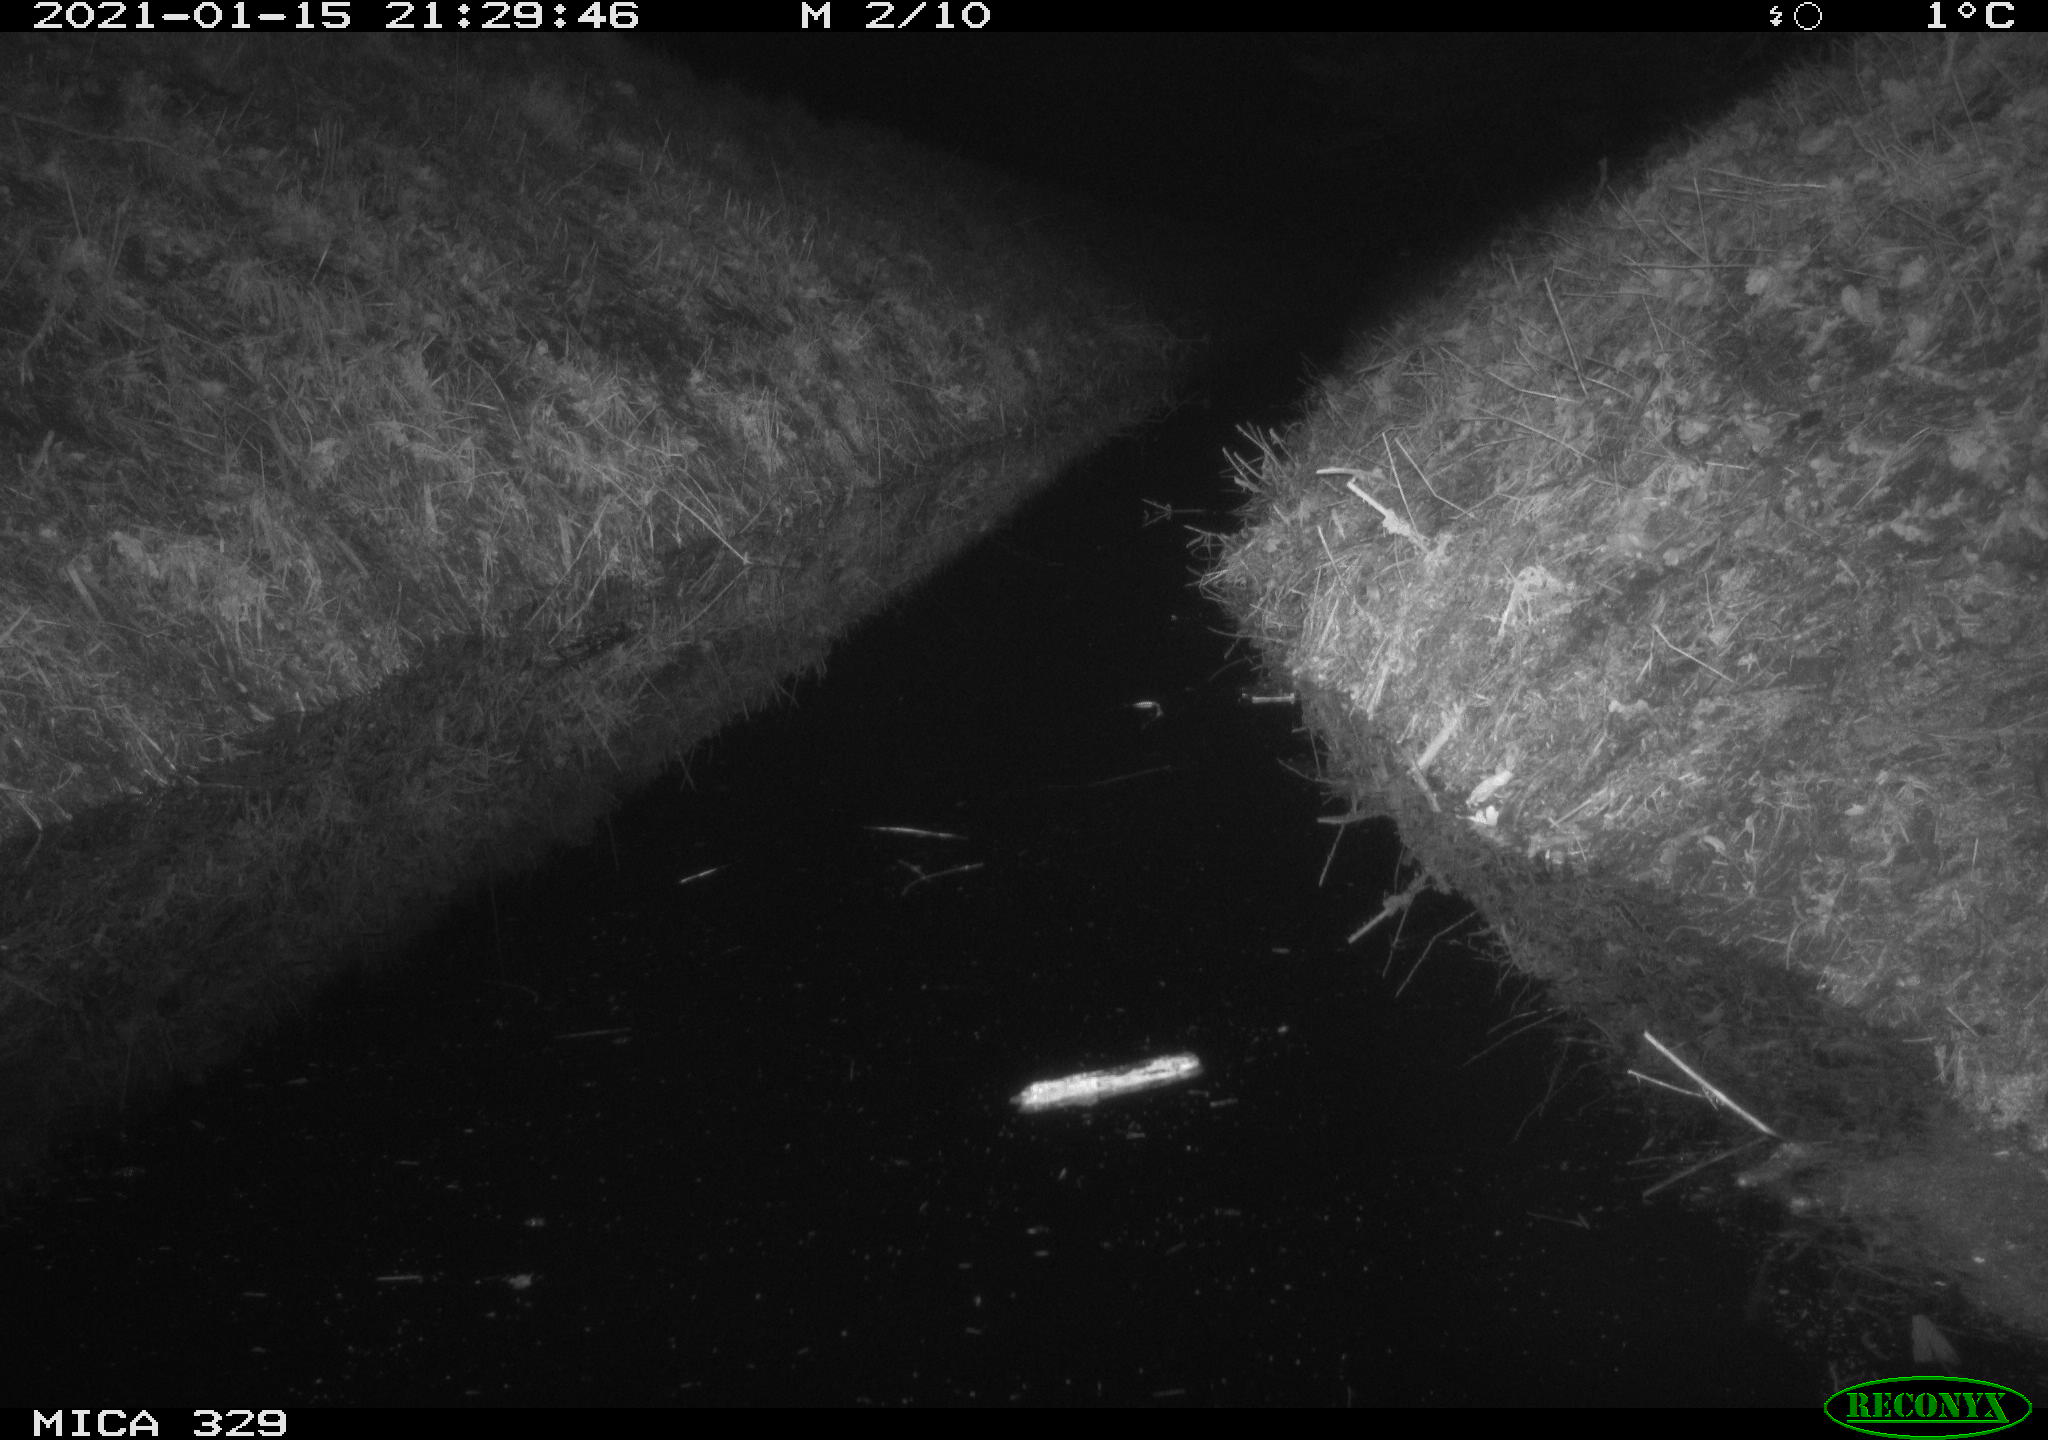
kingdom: Animalia
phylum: Chordata
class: Mammalia
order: Rodentia
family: Muridae
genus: Rattus
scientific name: Rattus norvegicus
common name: Brown rat
